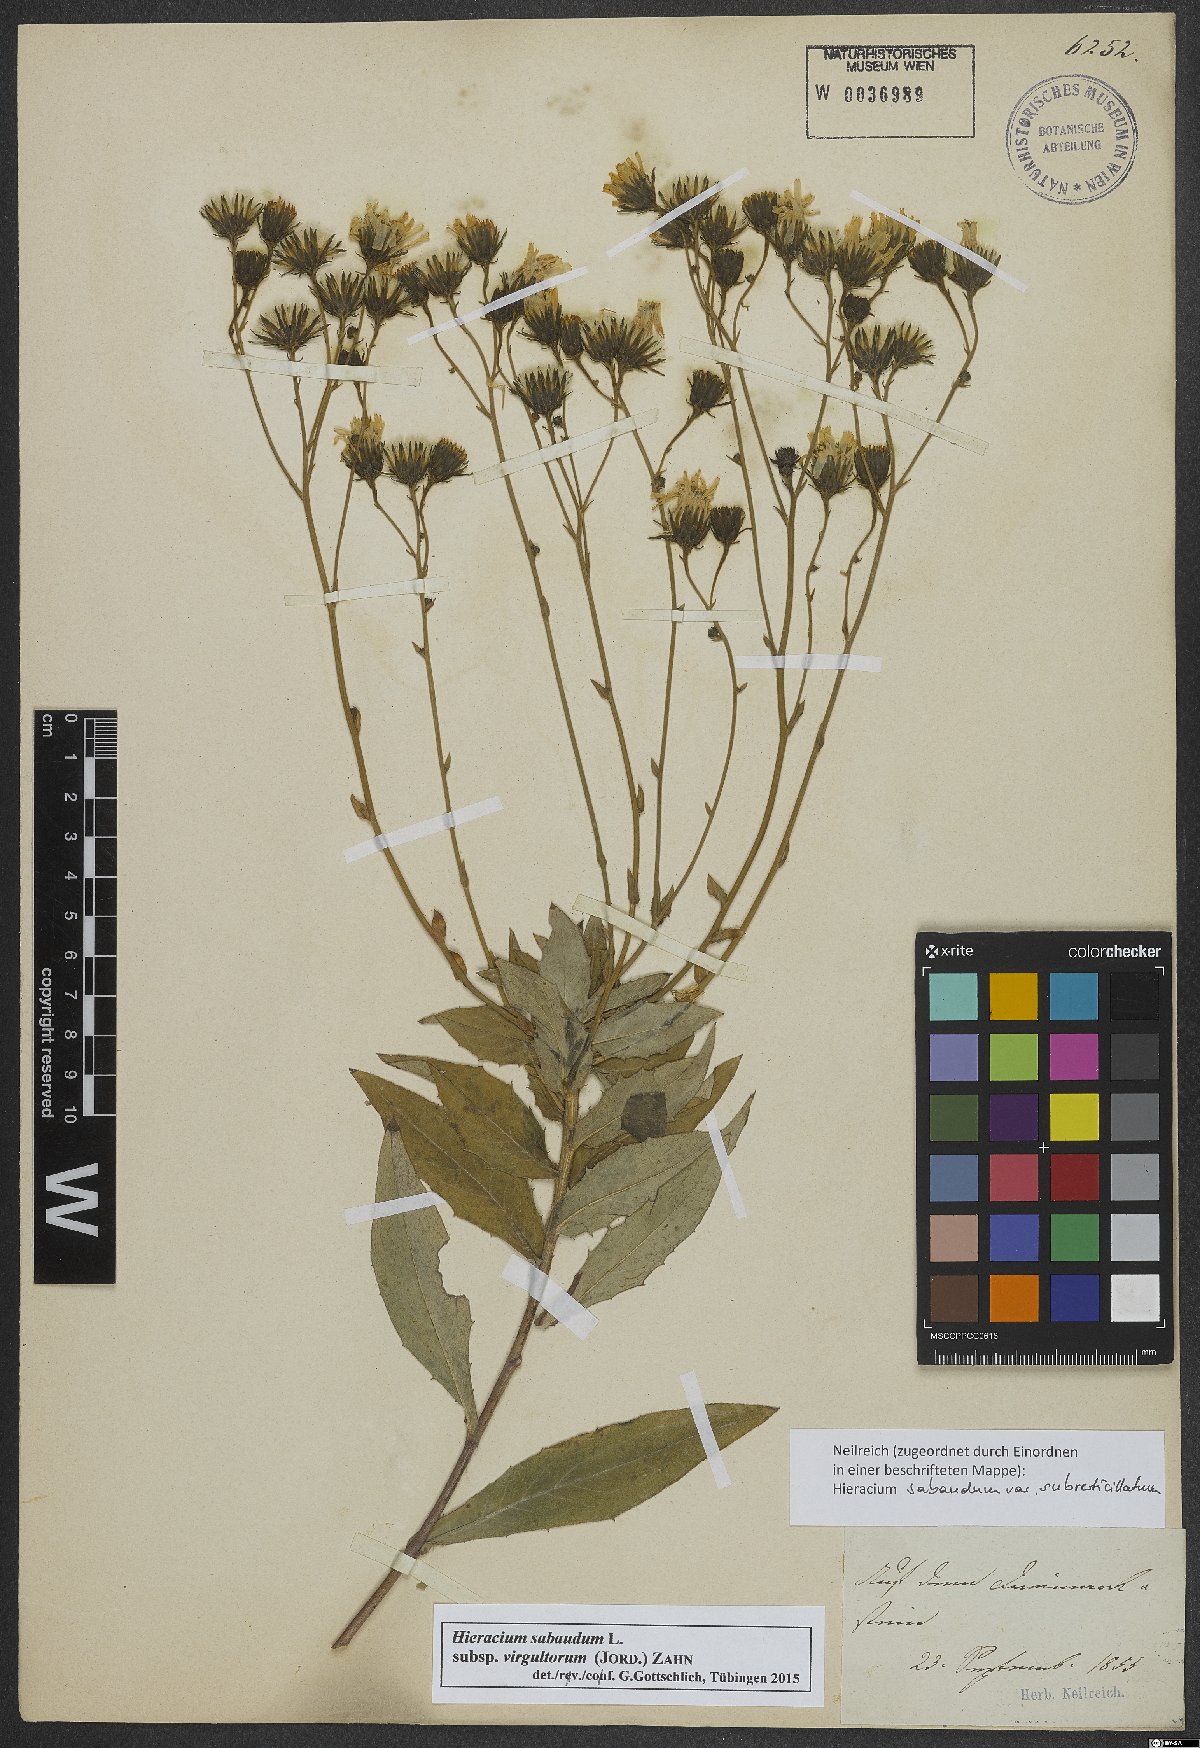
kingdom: Plantae
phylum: Tracheophyta
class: Magnoliopsida
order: Asterales
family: Asteraceae
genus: Hieracium
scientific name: Hieracium sabaudum
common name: New england hawkweed
